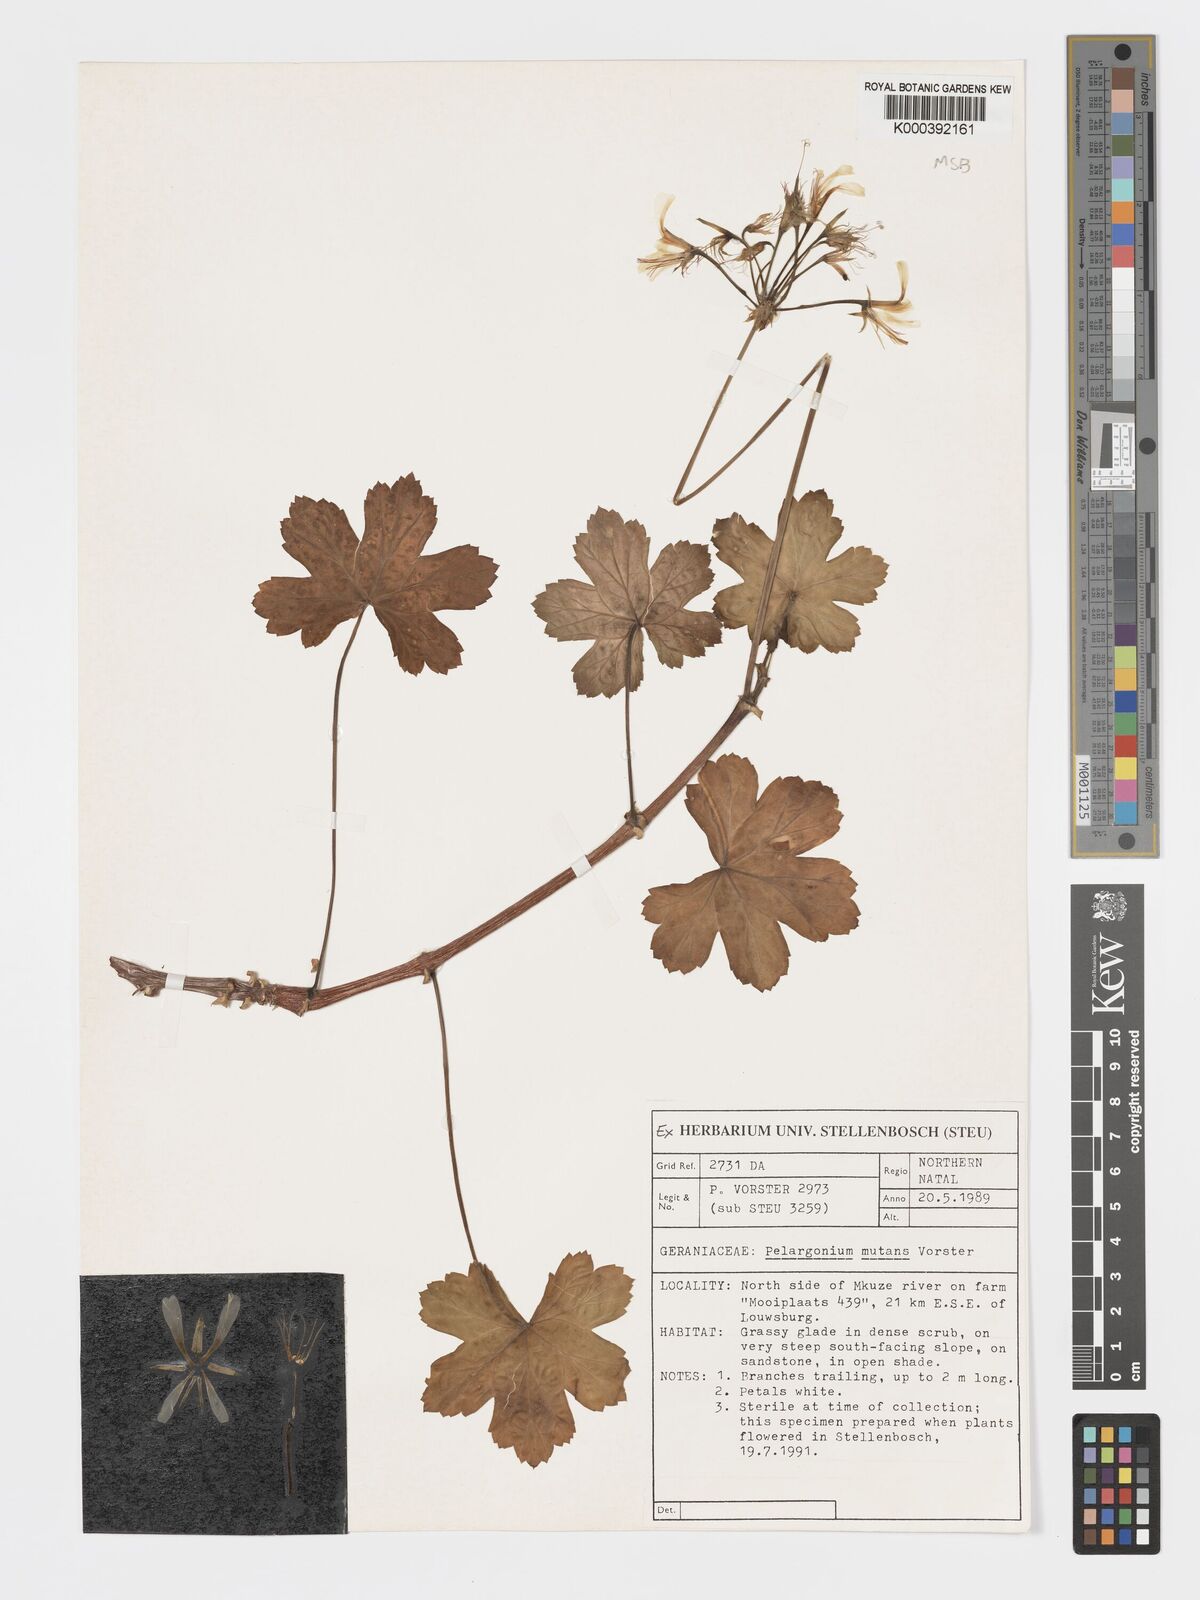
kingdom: Plantae
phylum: Tracheophyta
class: Magnoliopsida
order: Geraniales
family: Geraniaceae
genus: Pelargonium
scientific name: Pelargonium mutans
